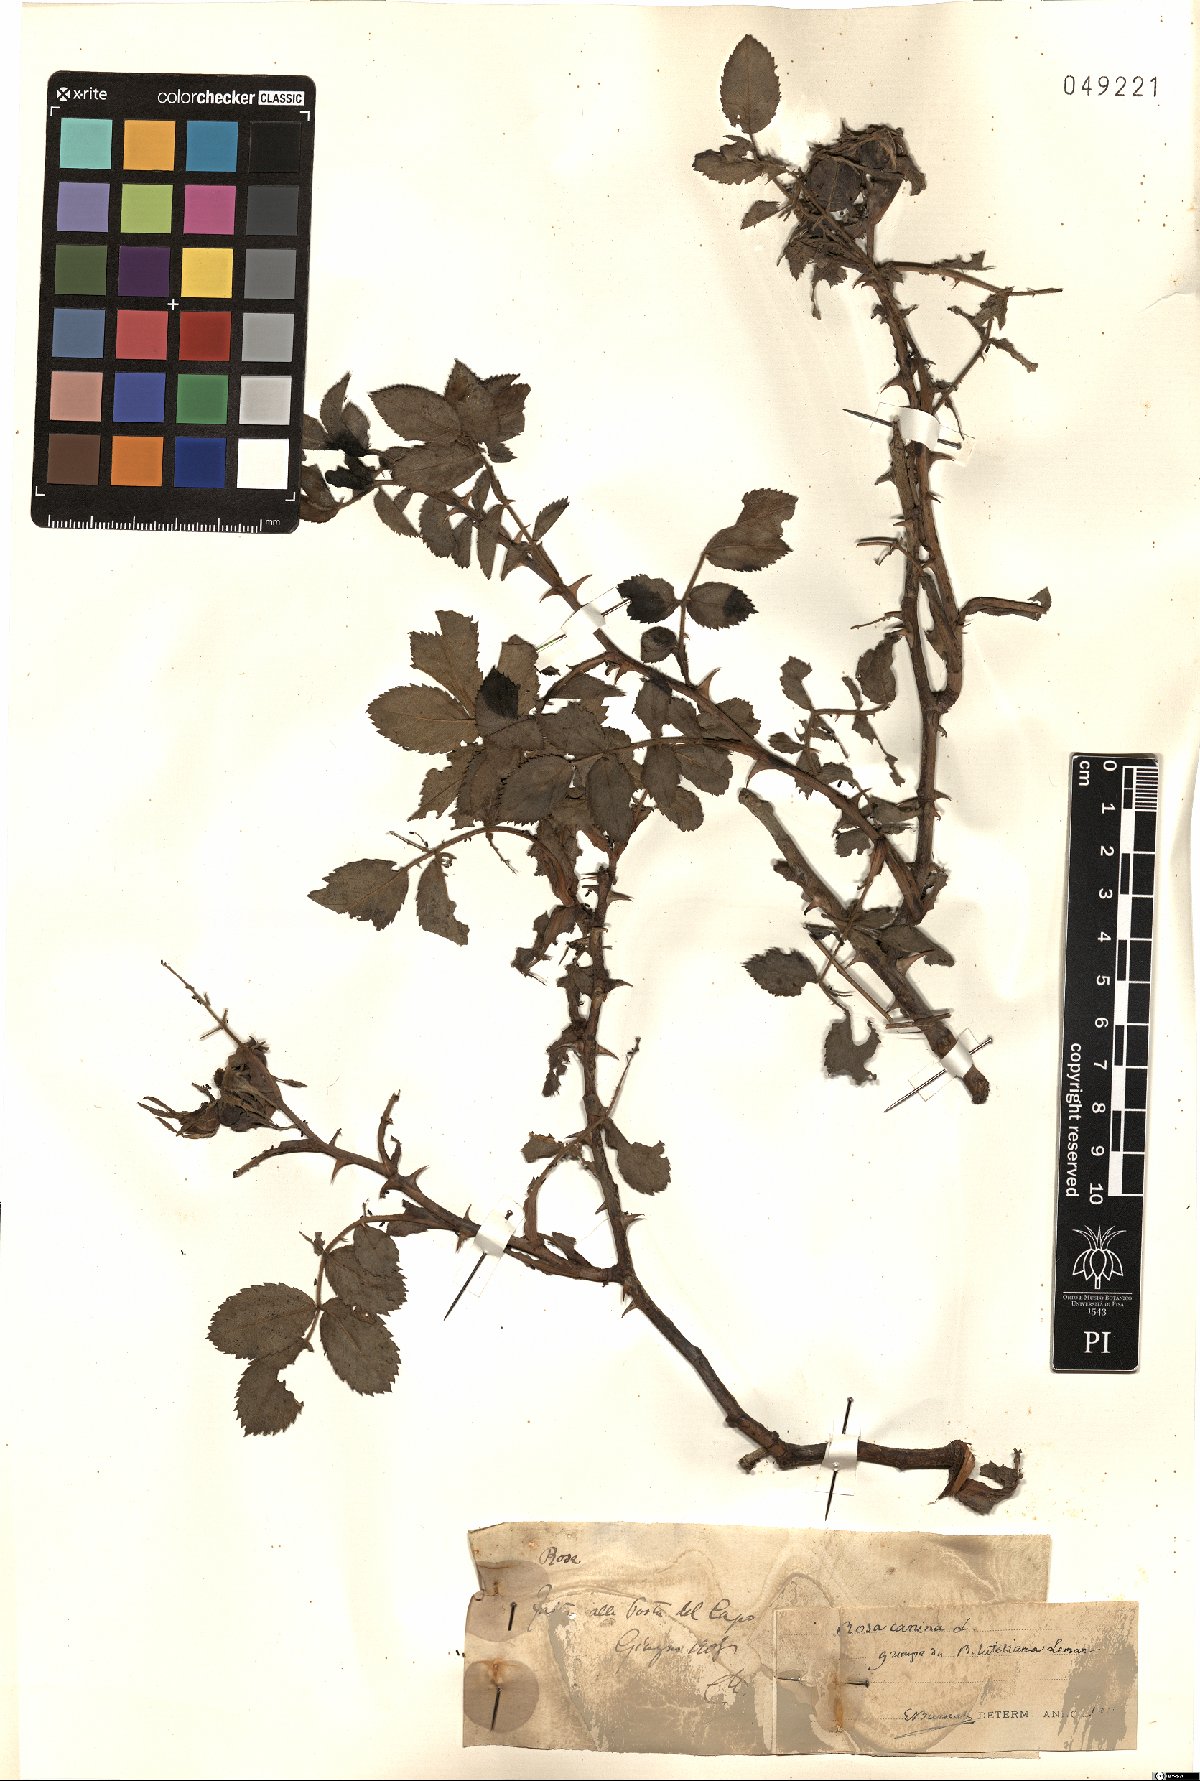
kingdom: Plantae
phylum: Tracheophyta
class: Magnoliopsida
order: Rosales
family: Rosaceae
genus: Rosa
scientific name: Rosa canina
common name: Dog rose
